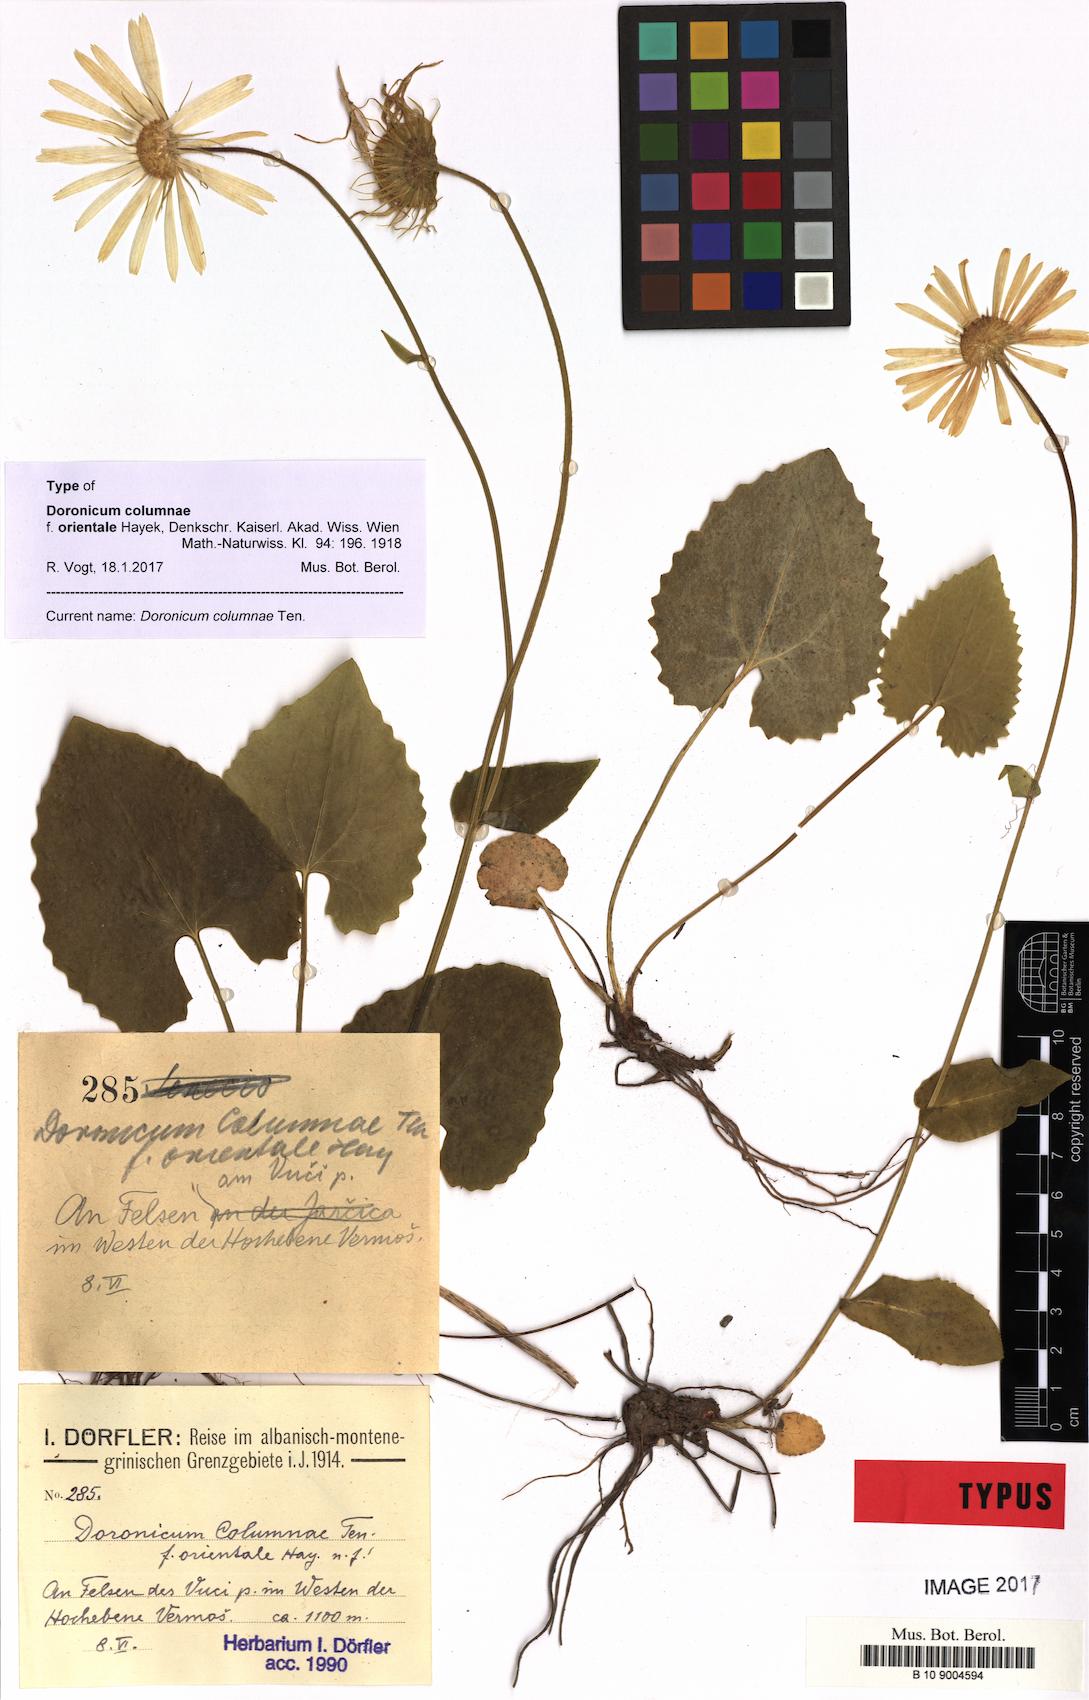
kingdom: Plantae
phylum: Tracheophyta
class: Magnoliopsida
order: Asterales
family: Asteraceae
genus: Doronicum
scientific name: Doronicum columnae
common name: Eastern leopard's-bane
